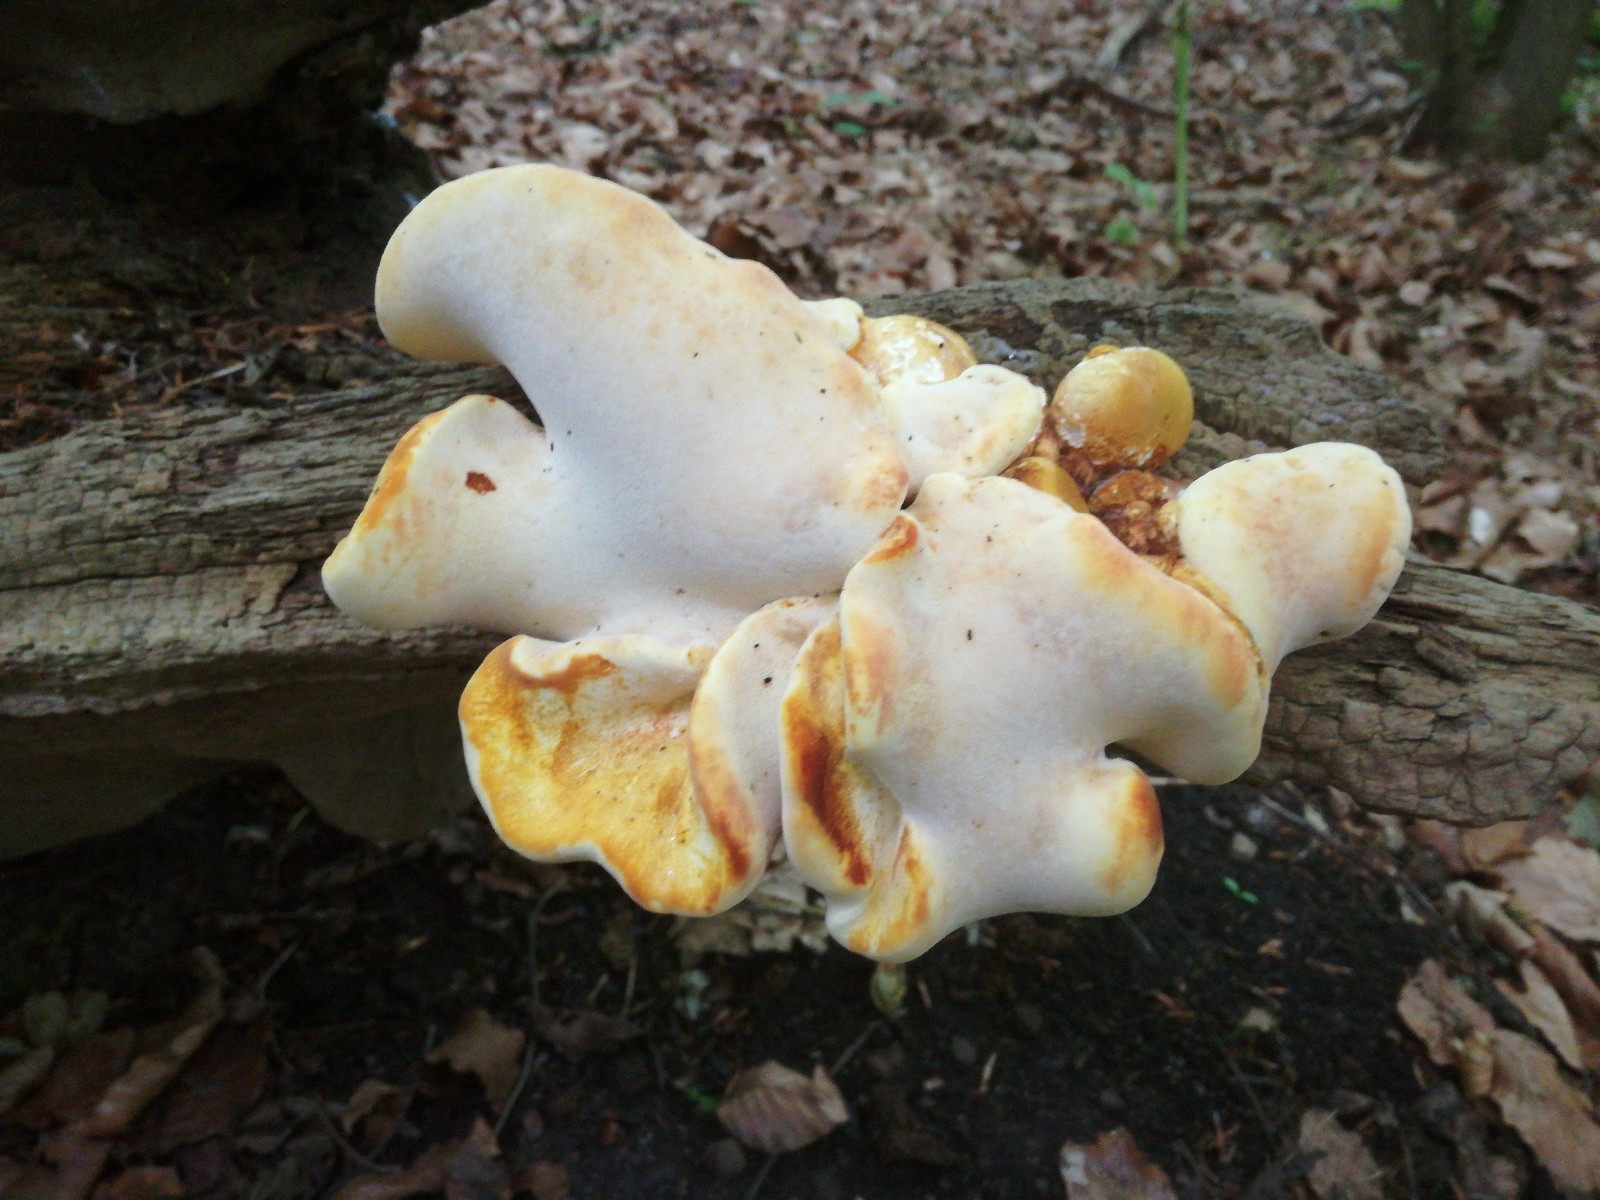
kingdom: Fungi
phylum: Basidiomycota
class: Agaricomycetes
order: Polyporales
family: Fomitopsidaceae
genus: Buglossoporus
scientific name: Buglossoporus quercinus
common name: egetunge
